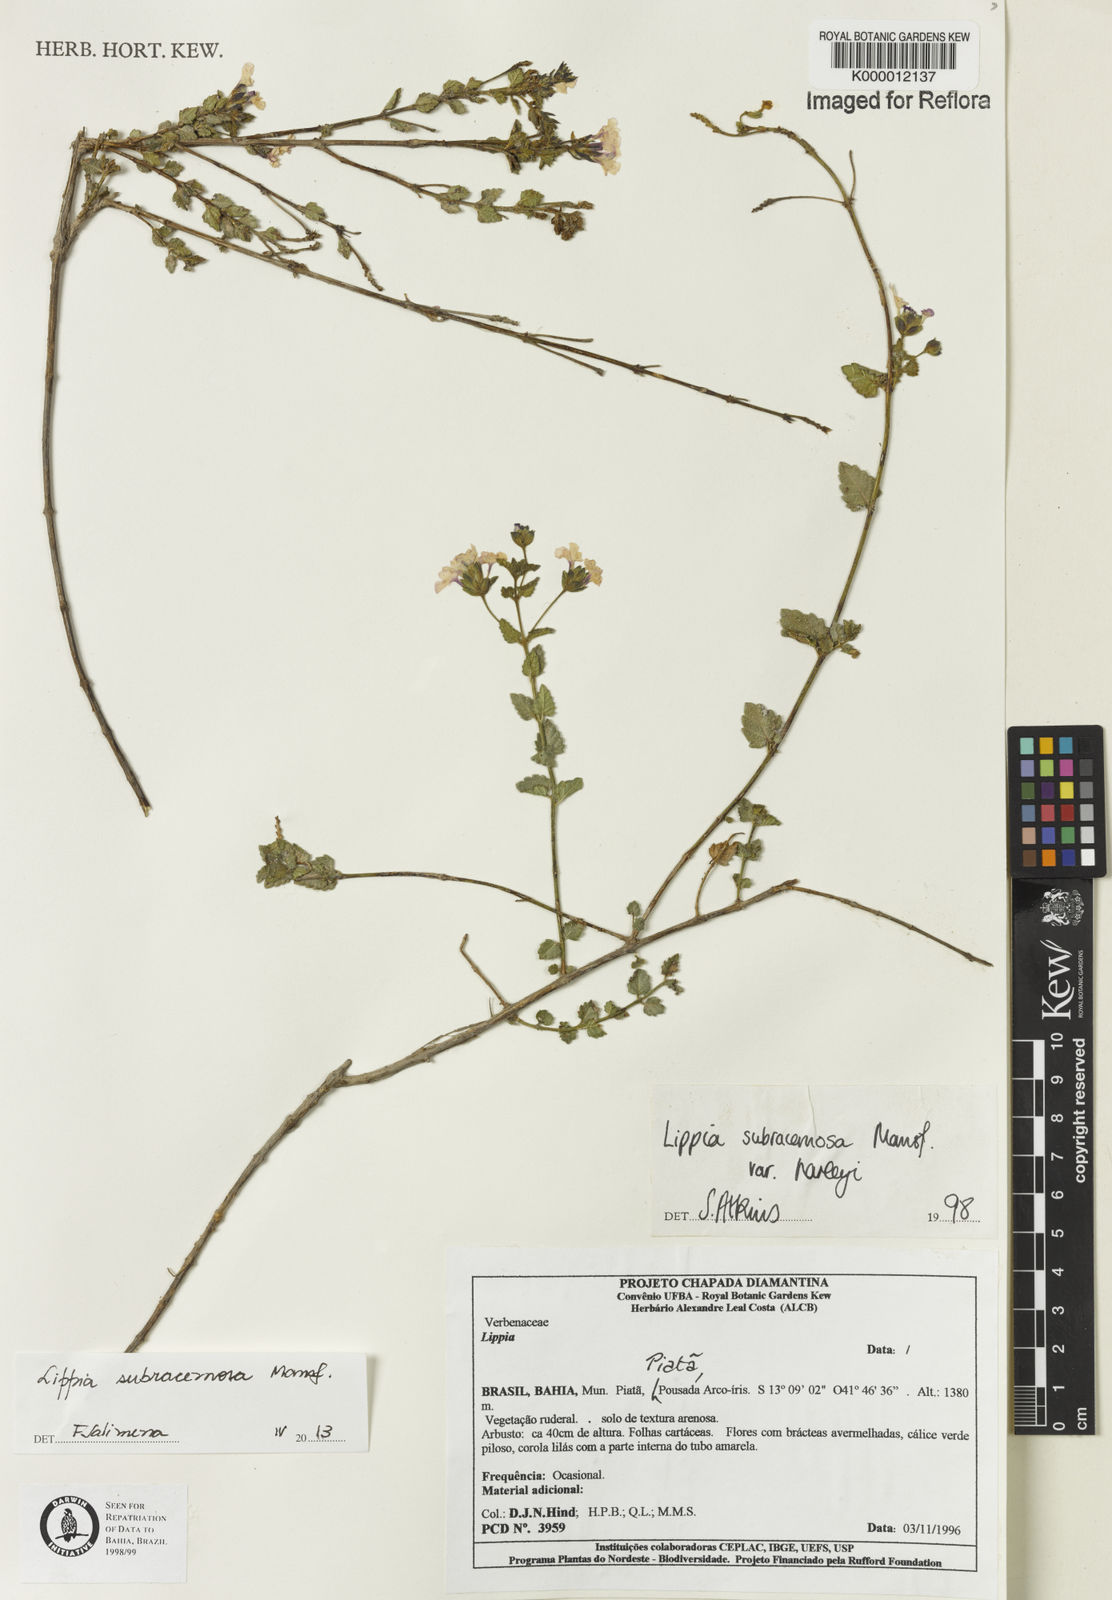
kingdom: Plantae
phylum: Tracheophyta
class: Magnoliopsida
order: Lamiales
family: Verbenaceae
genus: Lippia
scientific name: Lippia subracemosa
